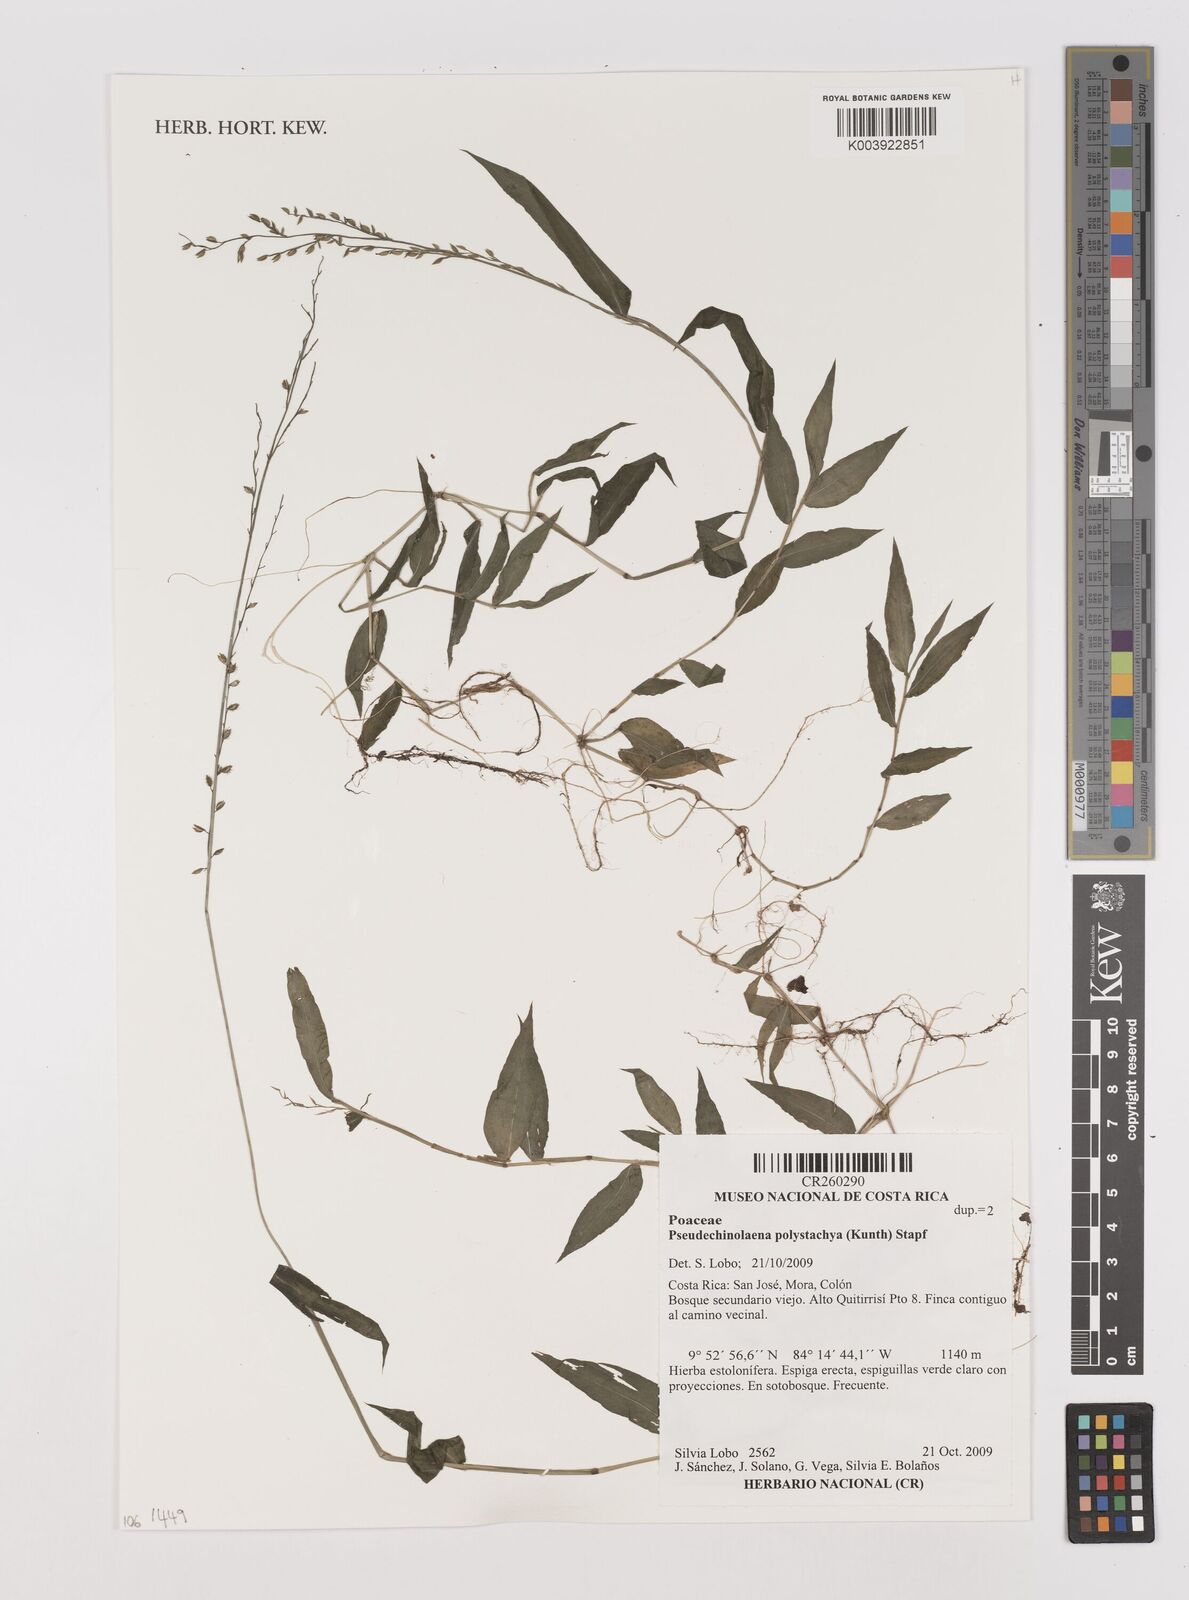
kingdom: Plantae
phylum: Tracheophyta
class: Liliopsida
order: Poales
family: Poaceae
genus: Pseudechinolaena
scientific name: Pseudechinolaena polystachya
